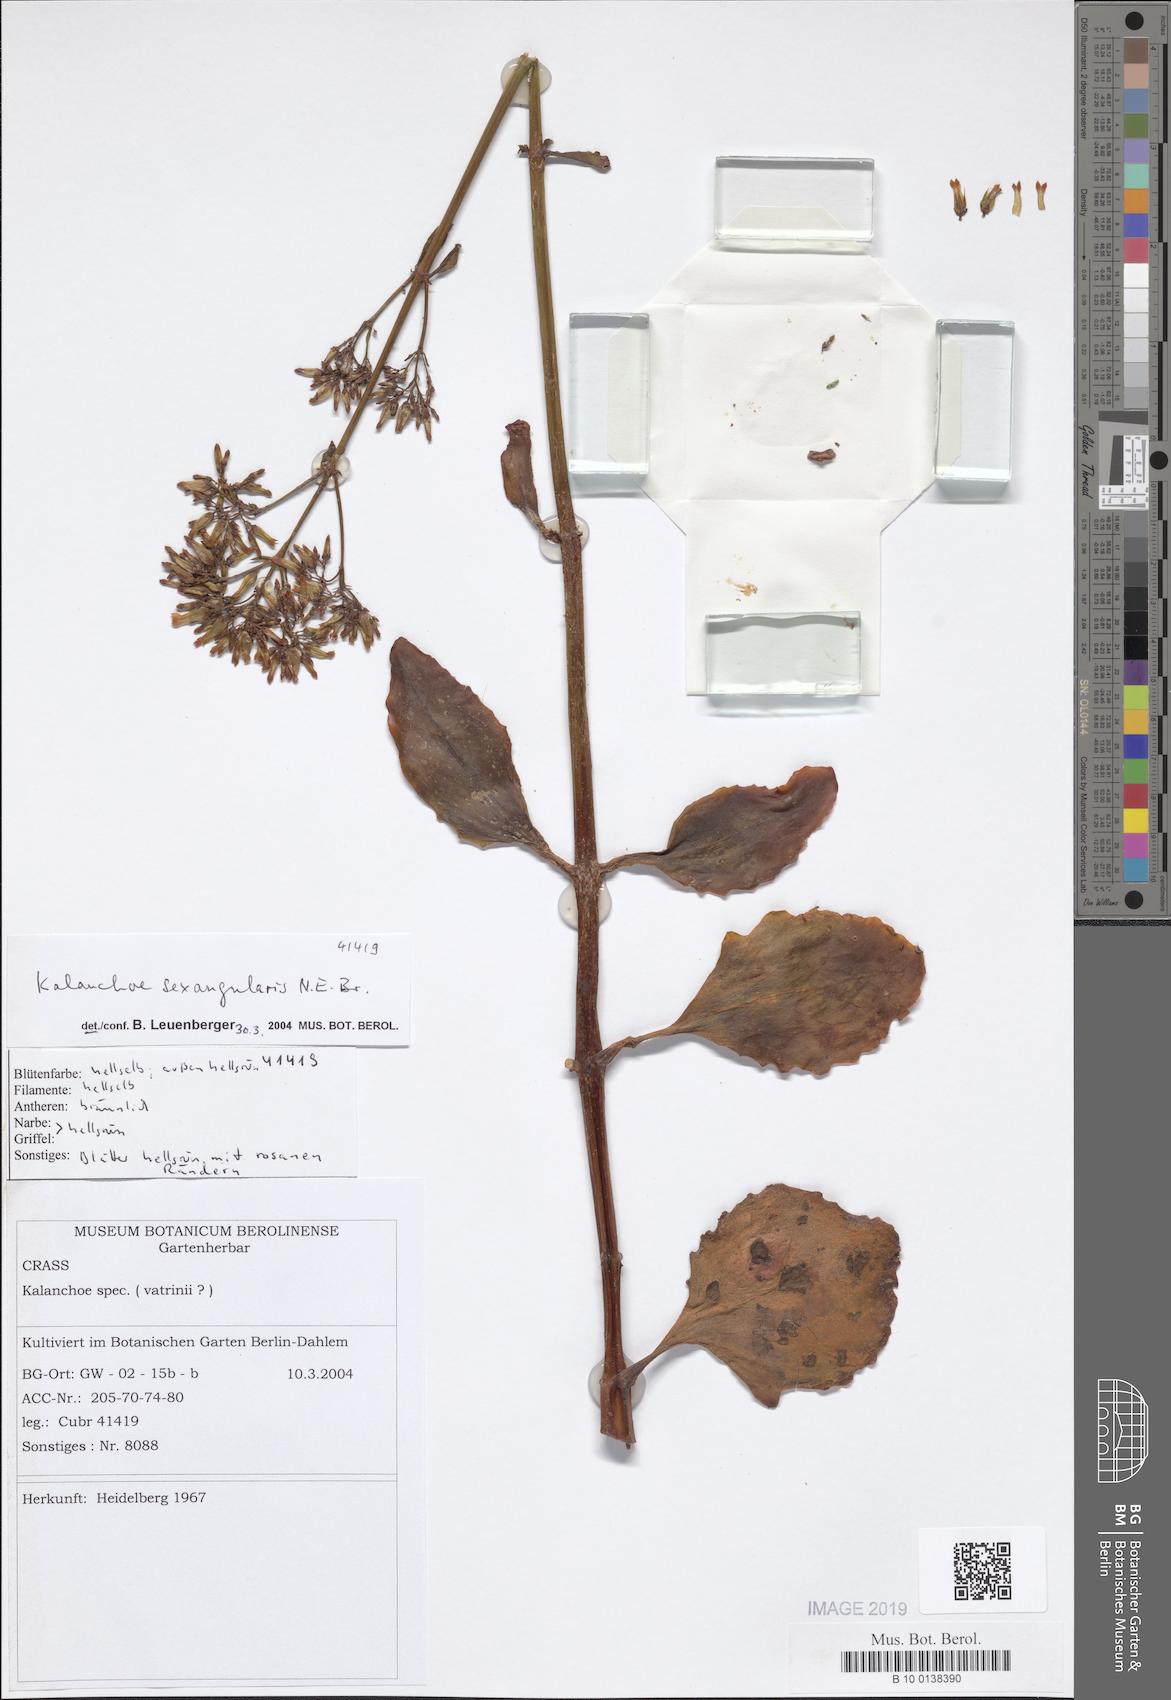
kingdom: Plantae
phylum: Tracheophyta
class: Magnoliopsida
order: Saxifragales
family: Crassulaceae
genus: Kalanchoe
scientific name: Kalanchoe sexangularis
